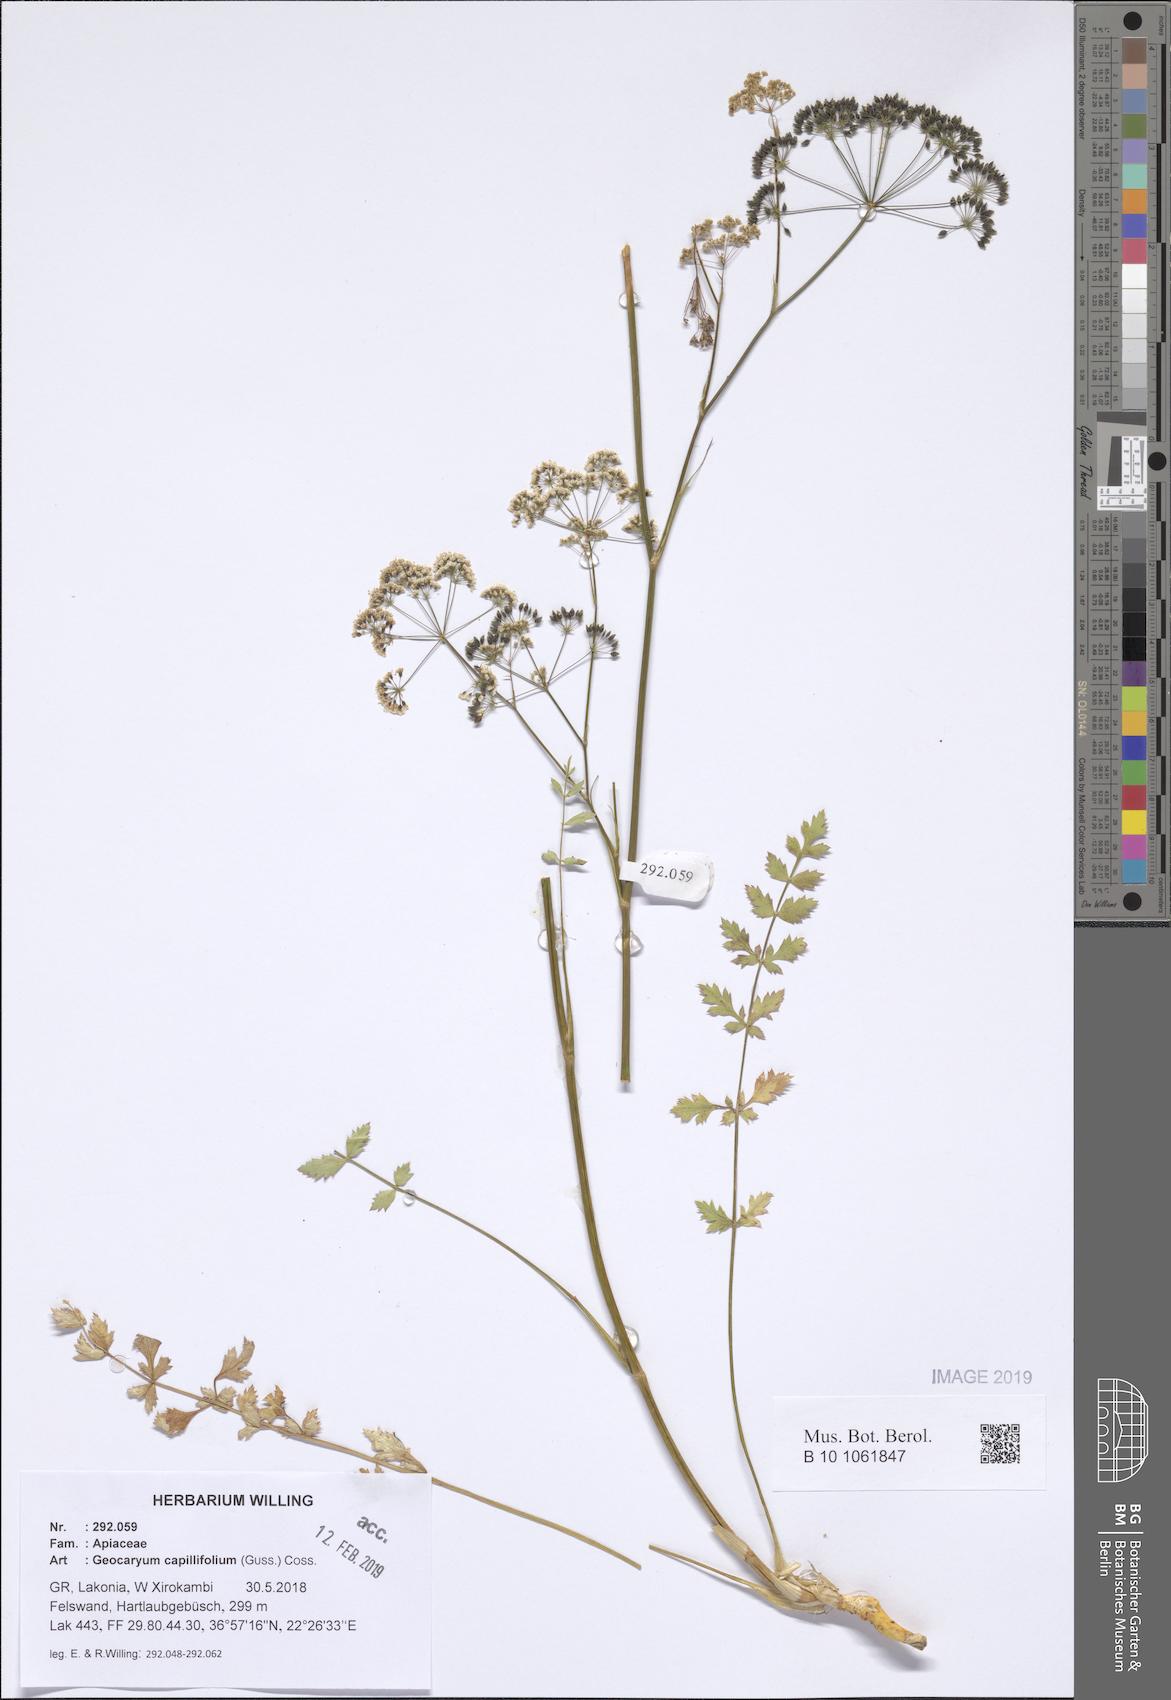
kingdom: Plantae
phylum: Tracheophyta
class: Magnoliopsida
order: Apiales
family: Apiaceae
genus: Geocaryum
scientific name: Geocaryum capillifolium
